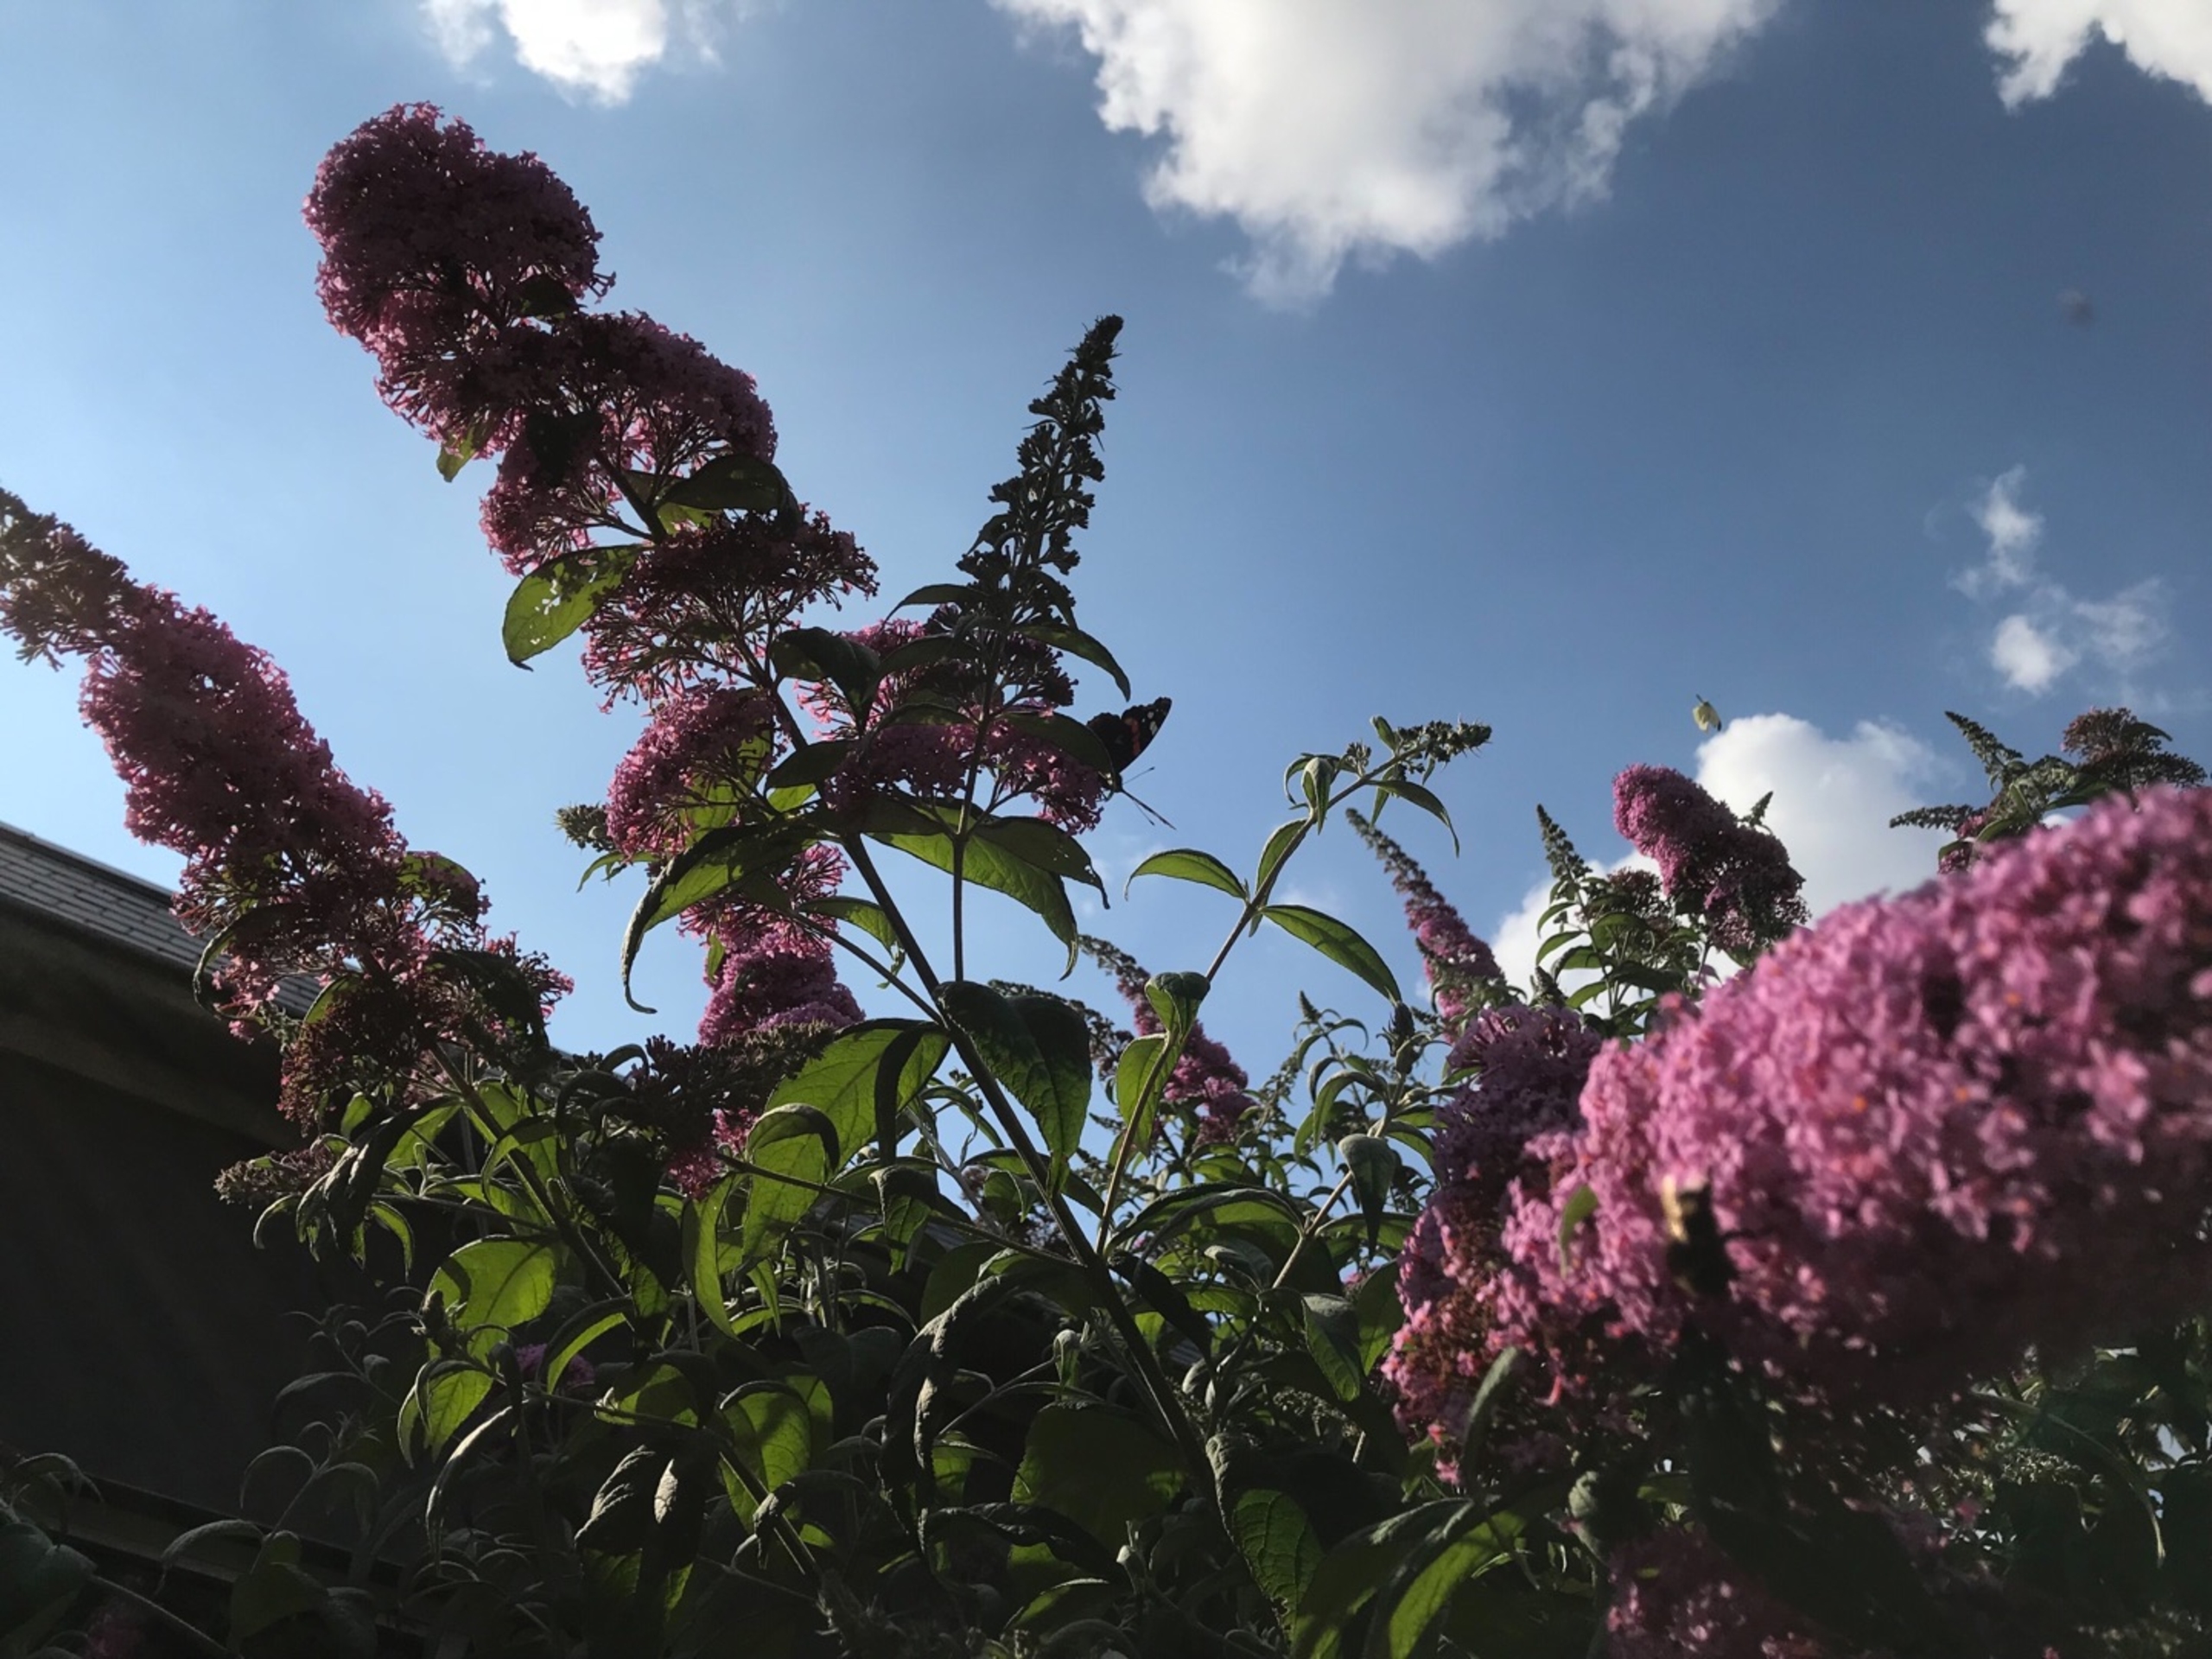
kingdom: Animalia
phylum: Arthropoda
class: Insecta
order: Lepidoptera
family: Nymphalidae
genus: Vanessa
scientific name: Vanessa atalanta
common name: Admiral
